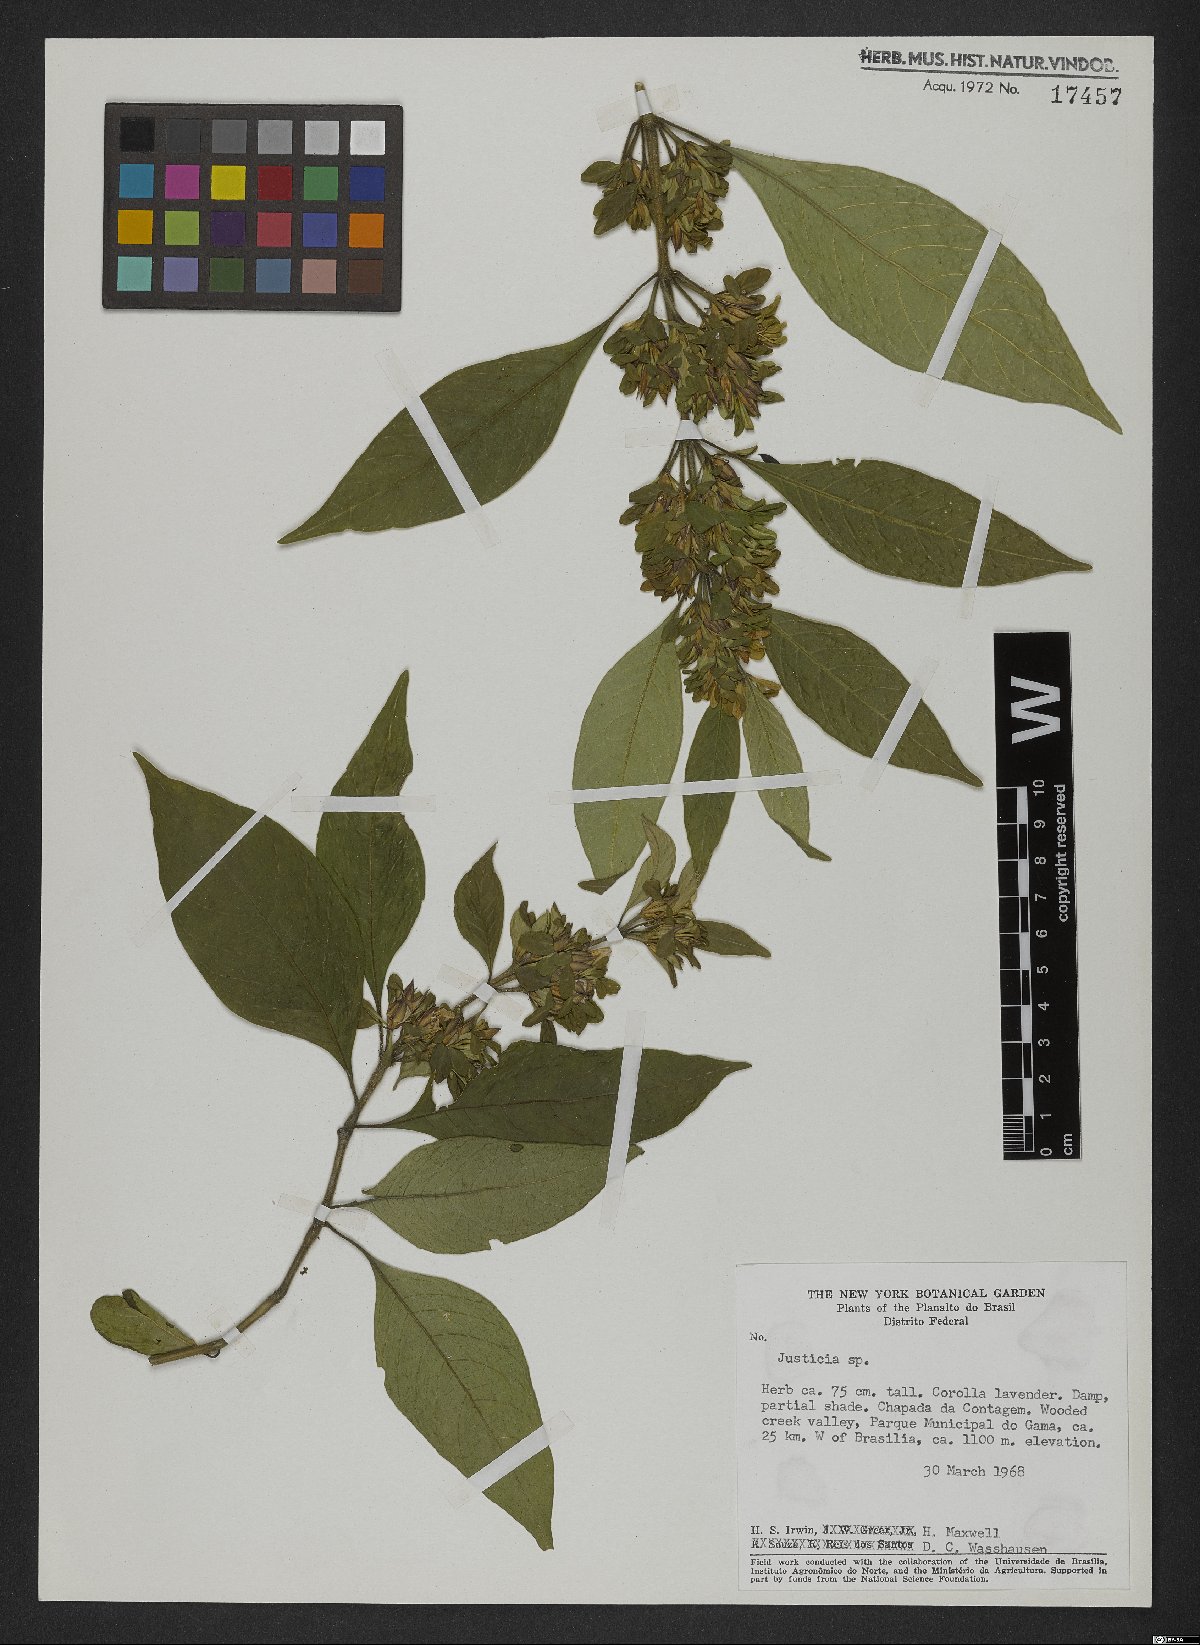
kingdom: Plantae
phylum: Tracheophyta
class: Magnoliopsida
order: Lamiales
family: Acanthaceae
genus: Justicia
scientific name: Justicia
